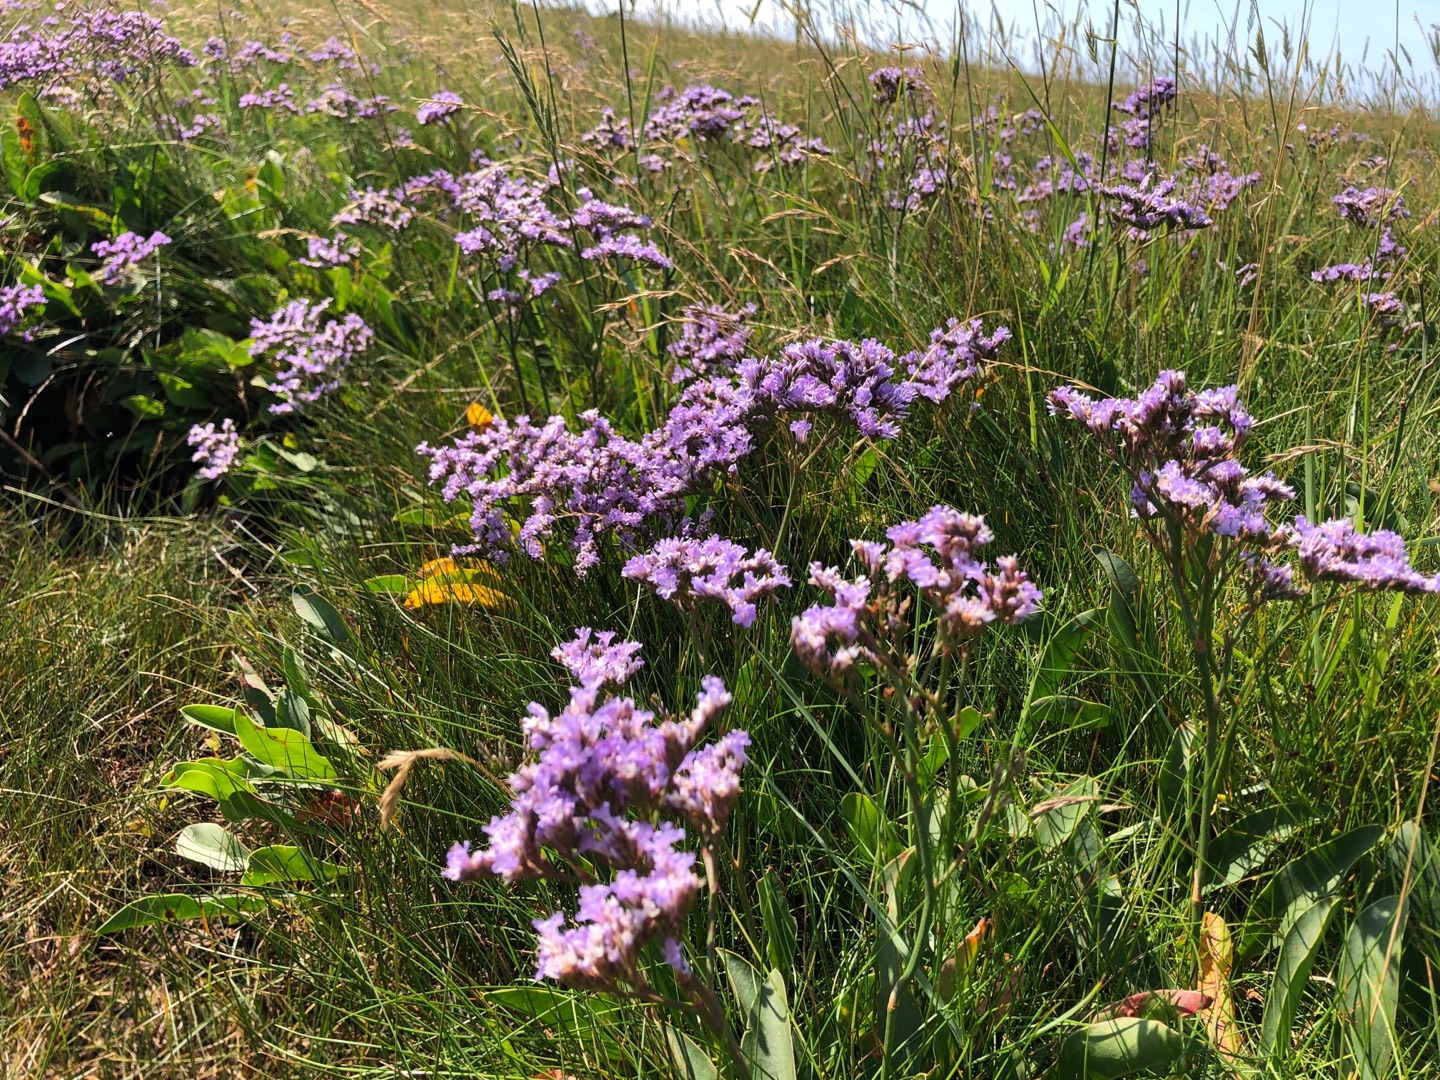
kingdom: Plantae
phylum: Tracheophyta
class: Magnoliopsida
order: Caryophyllales
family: Plumbaginaceae
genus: Limonium
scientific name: Limonium vulgare
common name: Tætblomstret hindebæger
